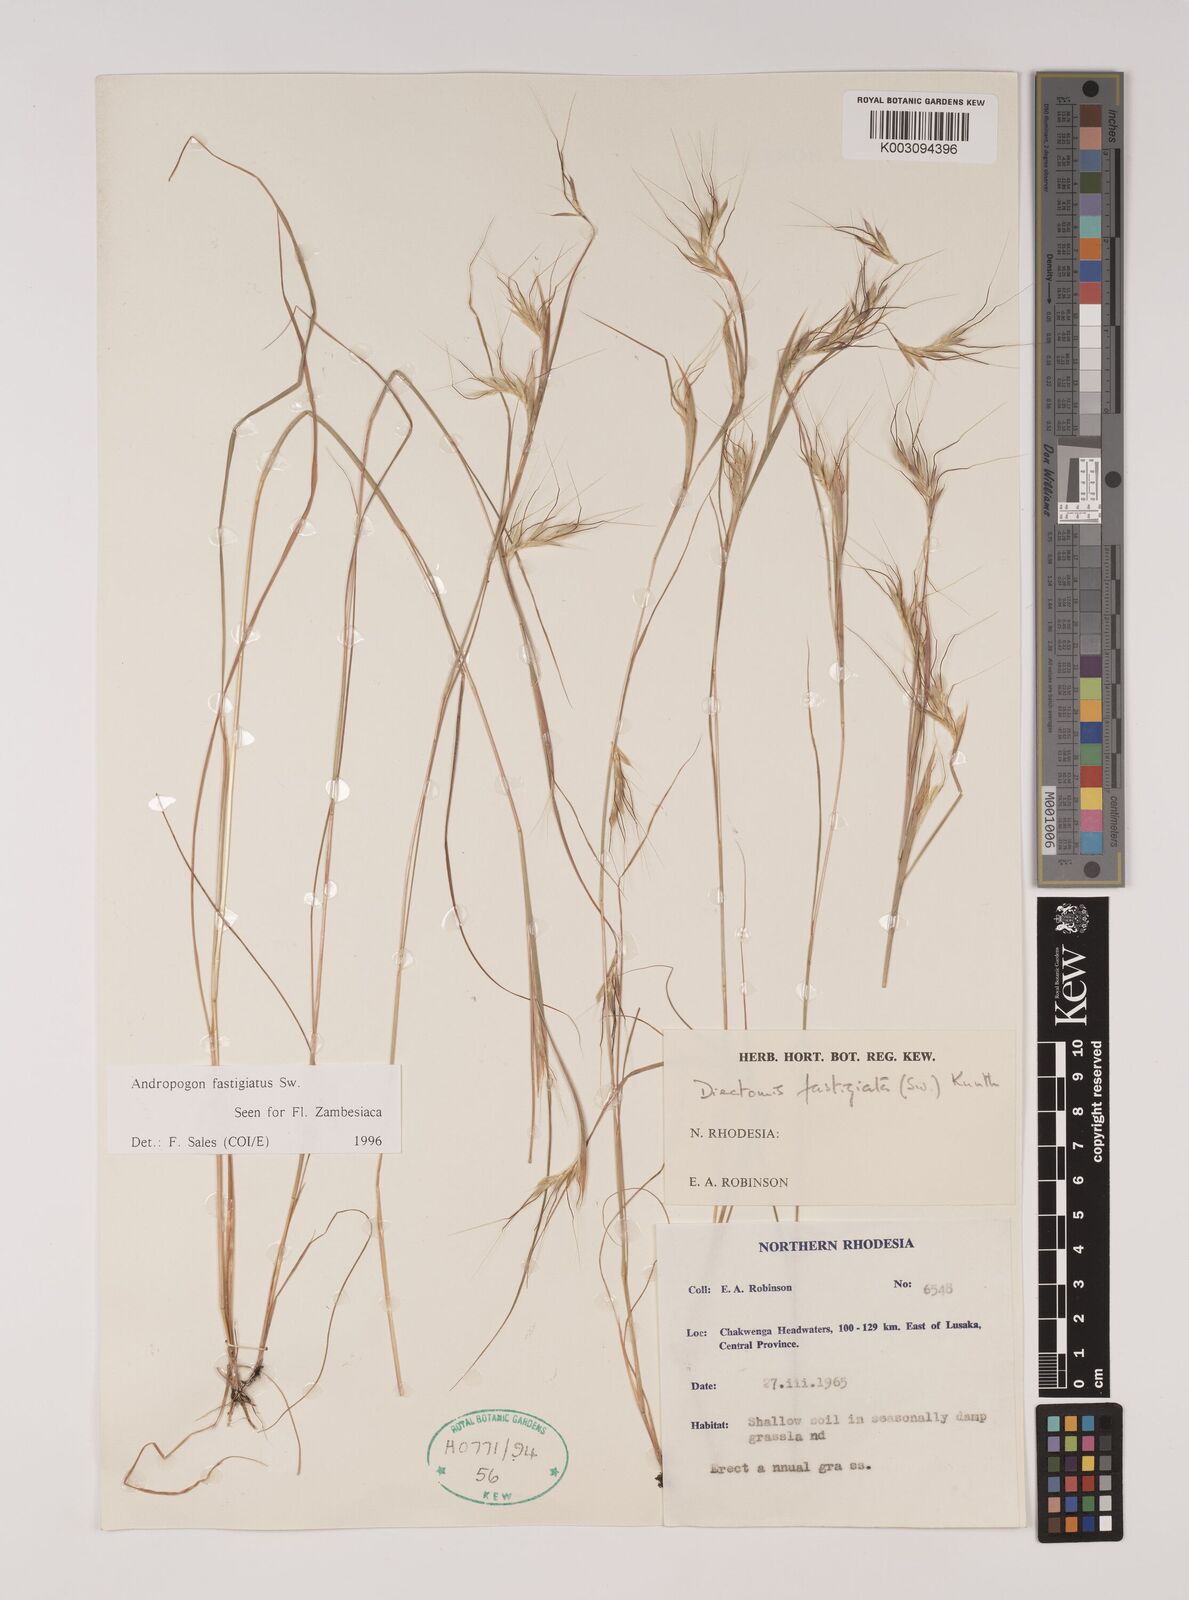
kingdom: Plantae
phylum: Tracheophyta
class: Liliopsida
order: Poales
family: Poaceae
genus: Diectomis
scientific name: Diectomis fastigiata
